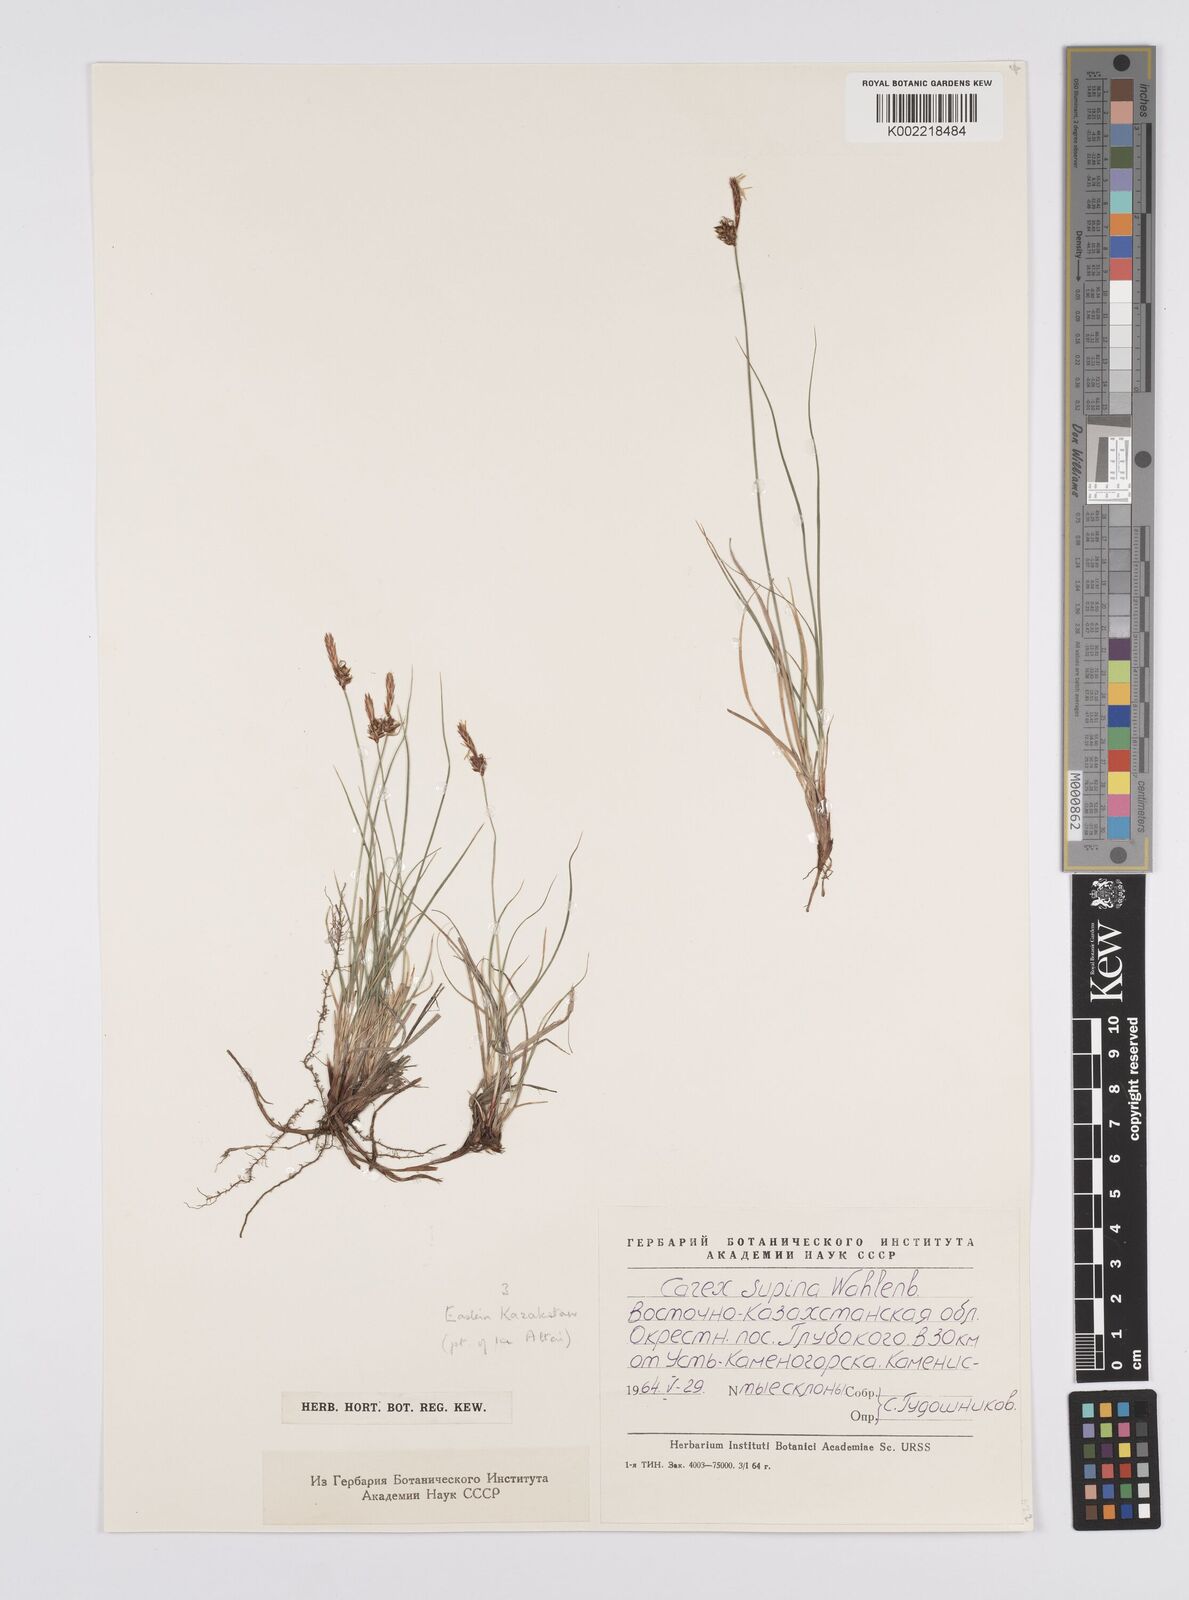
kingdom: Plantae
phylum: Tracheophyta
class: Liliopsida
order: Poales
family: Cyperaceae
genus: Carex
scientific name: Carex supina
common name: Lying-back sedge
